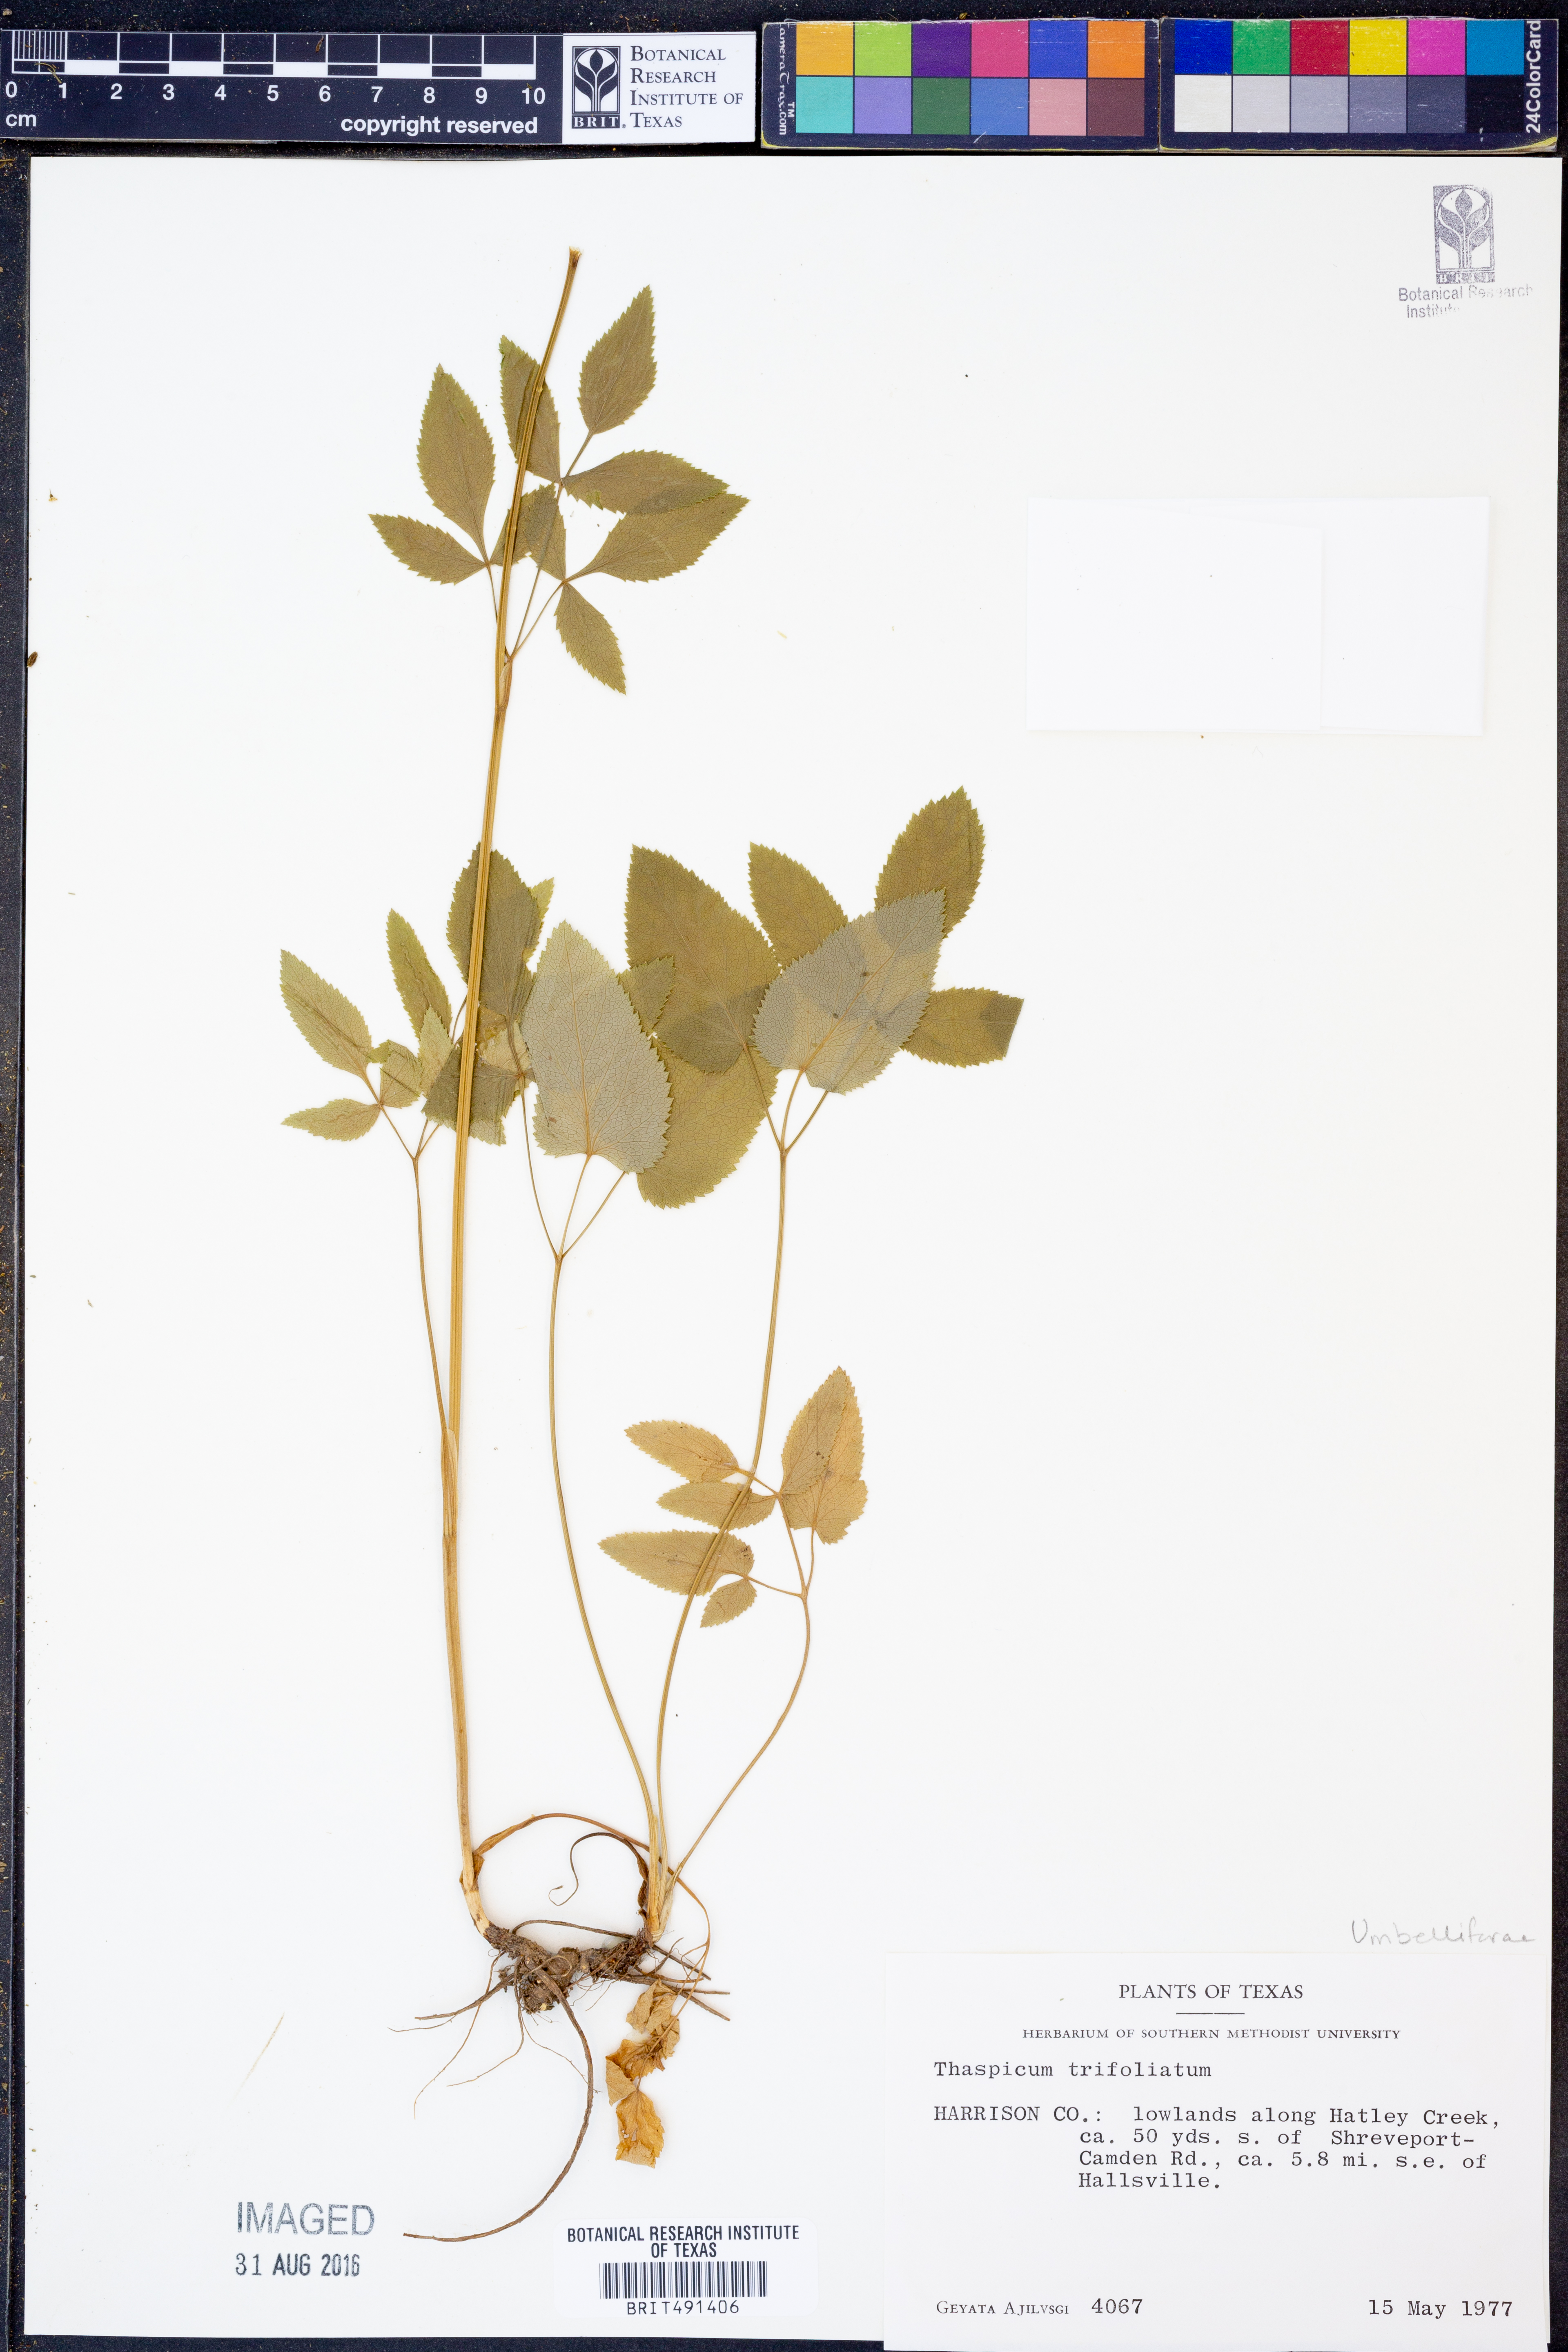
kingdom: Plantae
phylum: Tracheophyta
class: Magnoliopsida
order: Apiales
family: Apiaceae
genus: Thaspium
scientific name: Thaspium trifoliatum
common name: Purple meadow-parsnip
